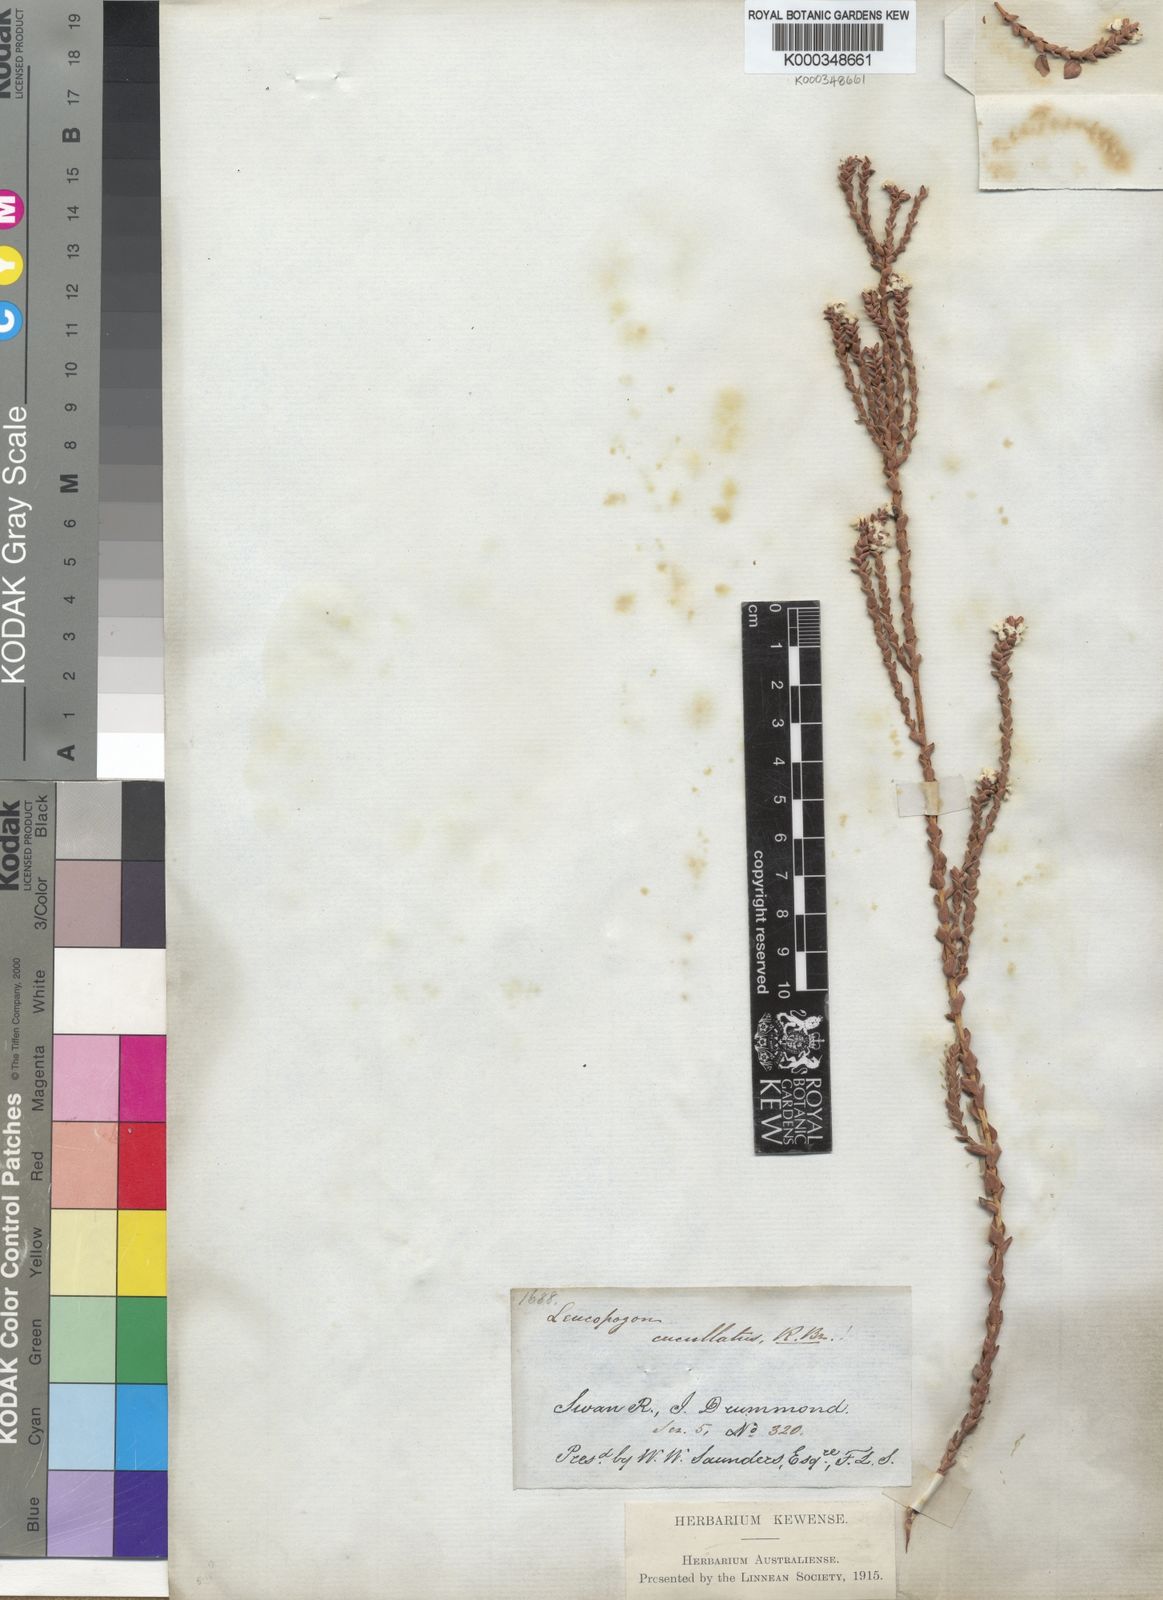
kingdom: Plantae
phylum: Tracheophyta
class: Magnoliopsida
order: Ericales
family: Ericaceae
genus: Leucopogon
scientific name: Leucopogon cucullatus
